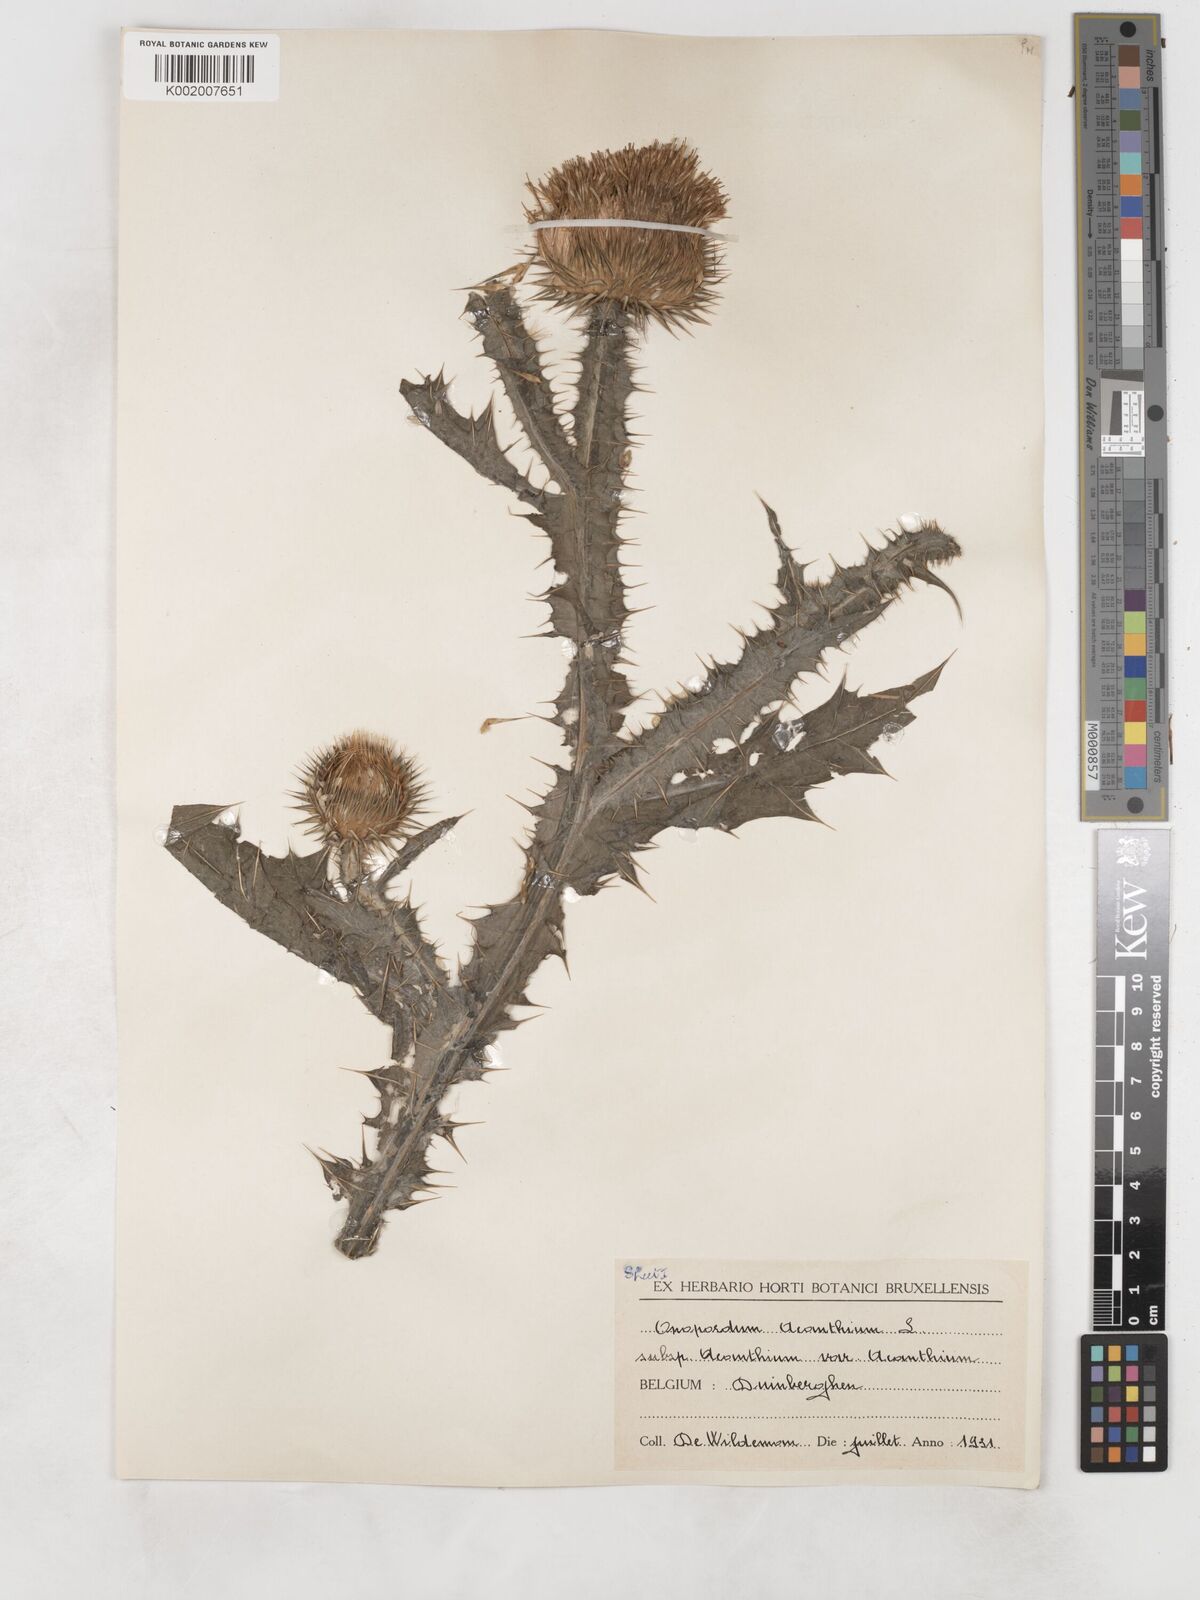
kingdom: Plantae
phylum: Tracheophyta
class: Magnoliopsida
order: Asterales
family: Asteraceae
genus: Onopordum
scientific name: Onopordum acanthium
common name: Scotch thistle
